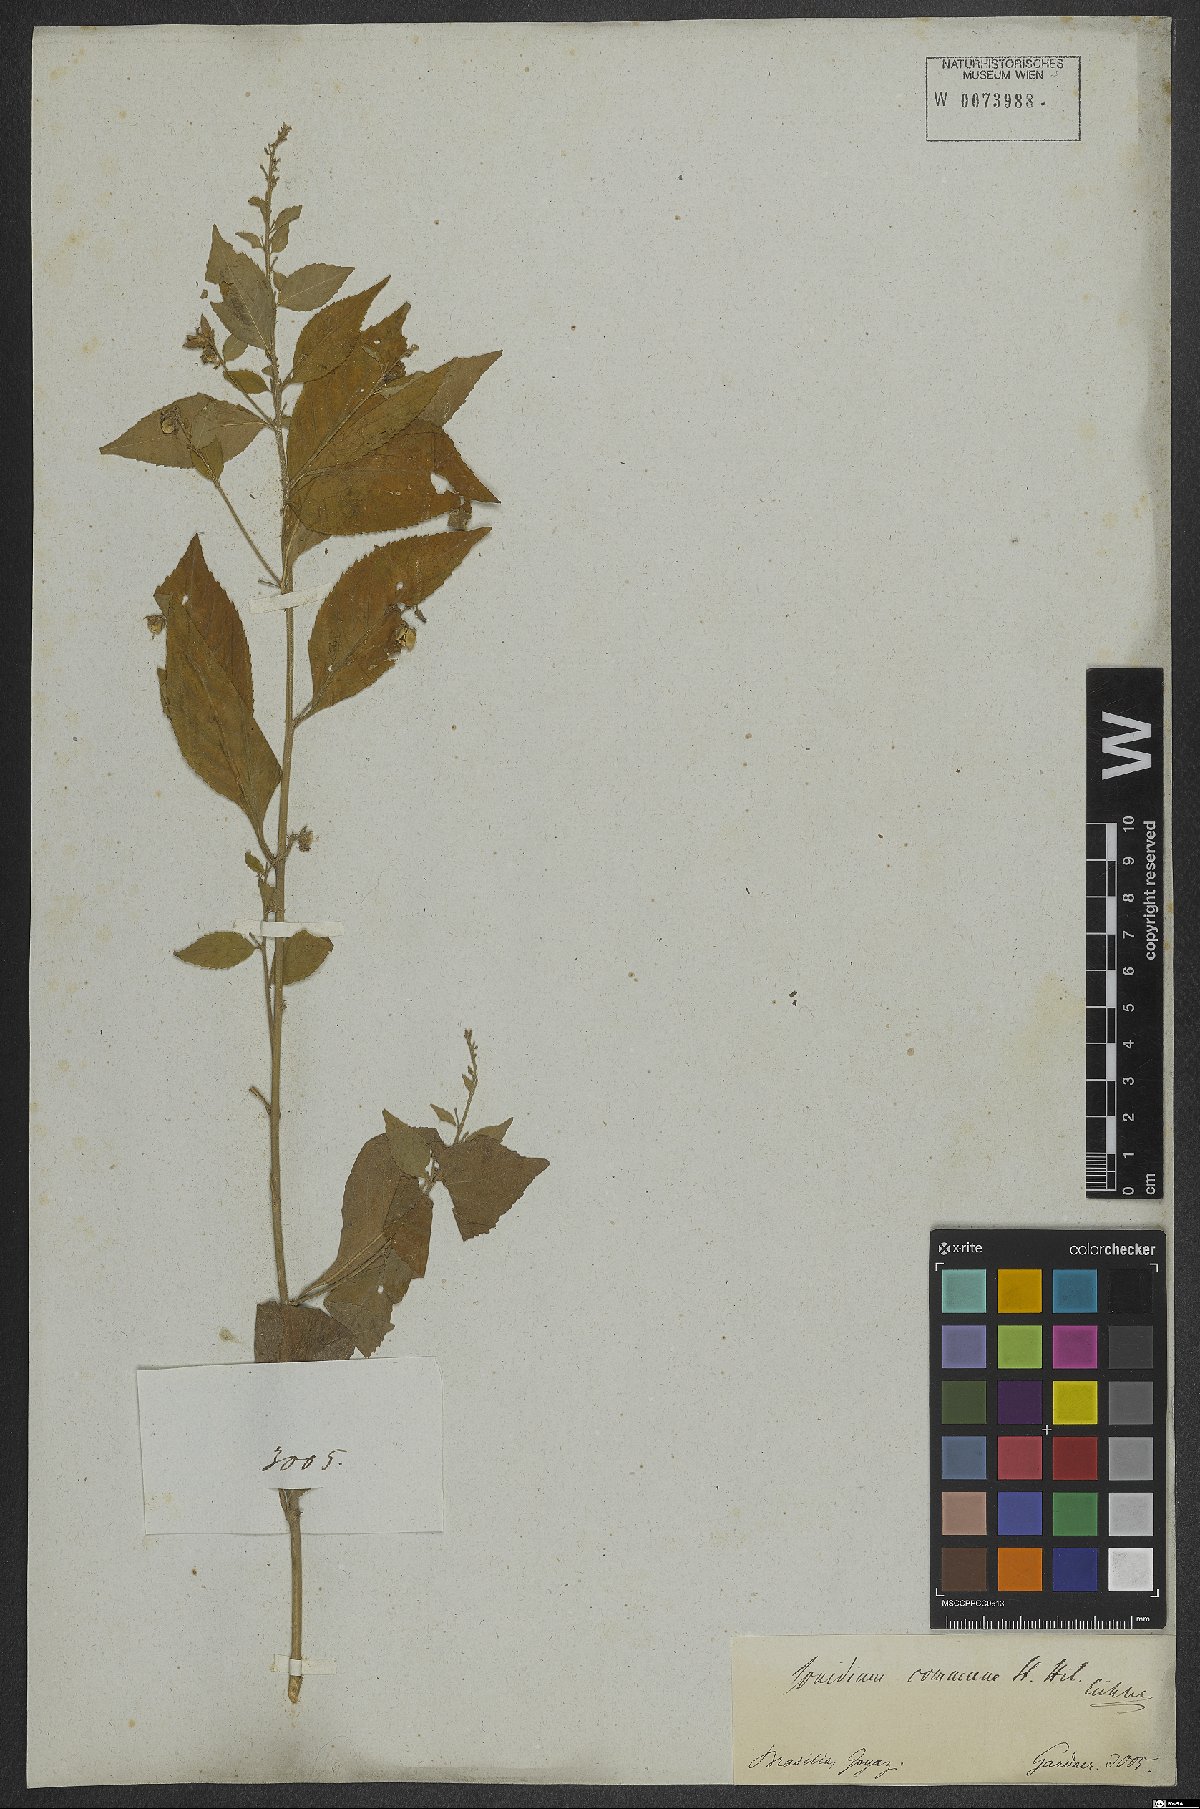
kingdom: Plantae
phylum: Tracheophyta
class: Magnoliopsida
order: Malpighiales
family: Violaceae
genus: Pombalia
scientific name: Pombalia communis
